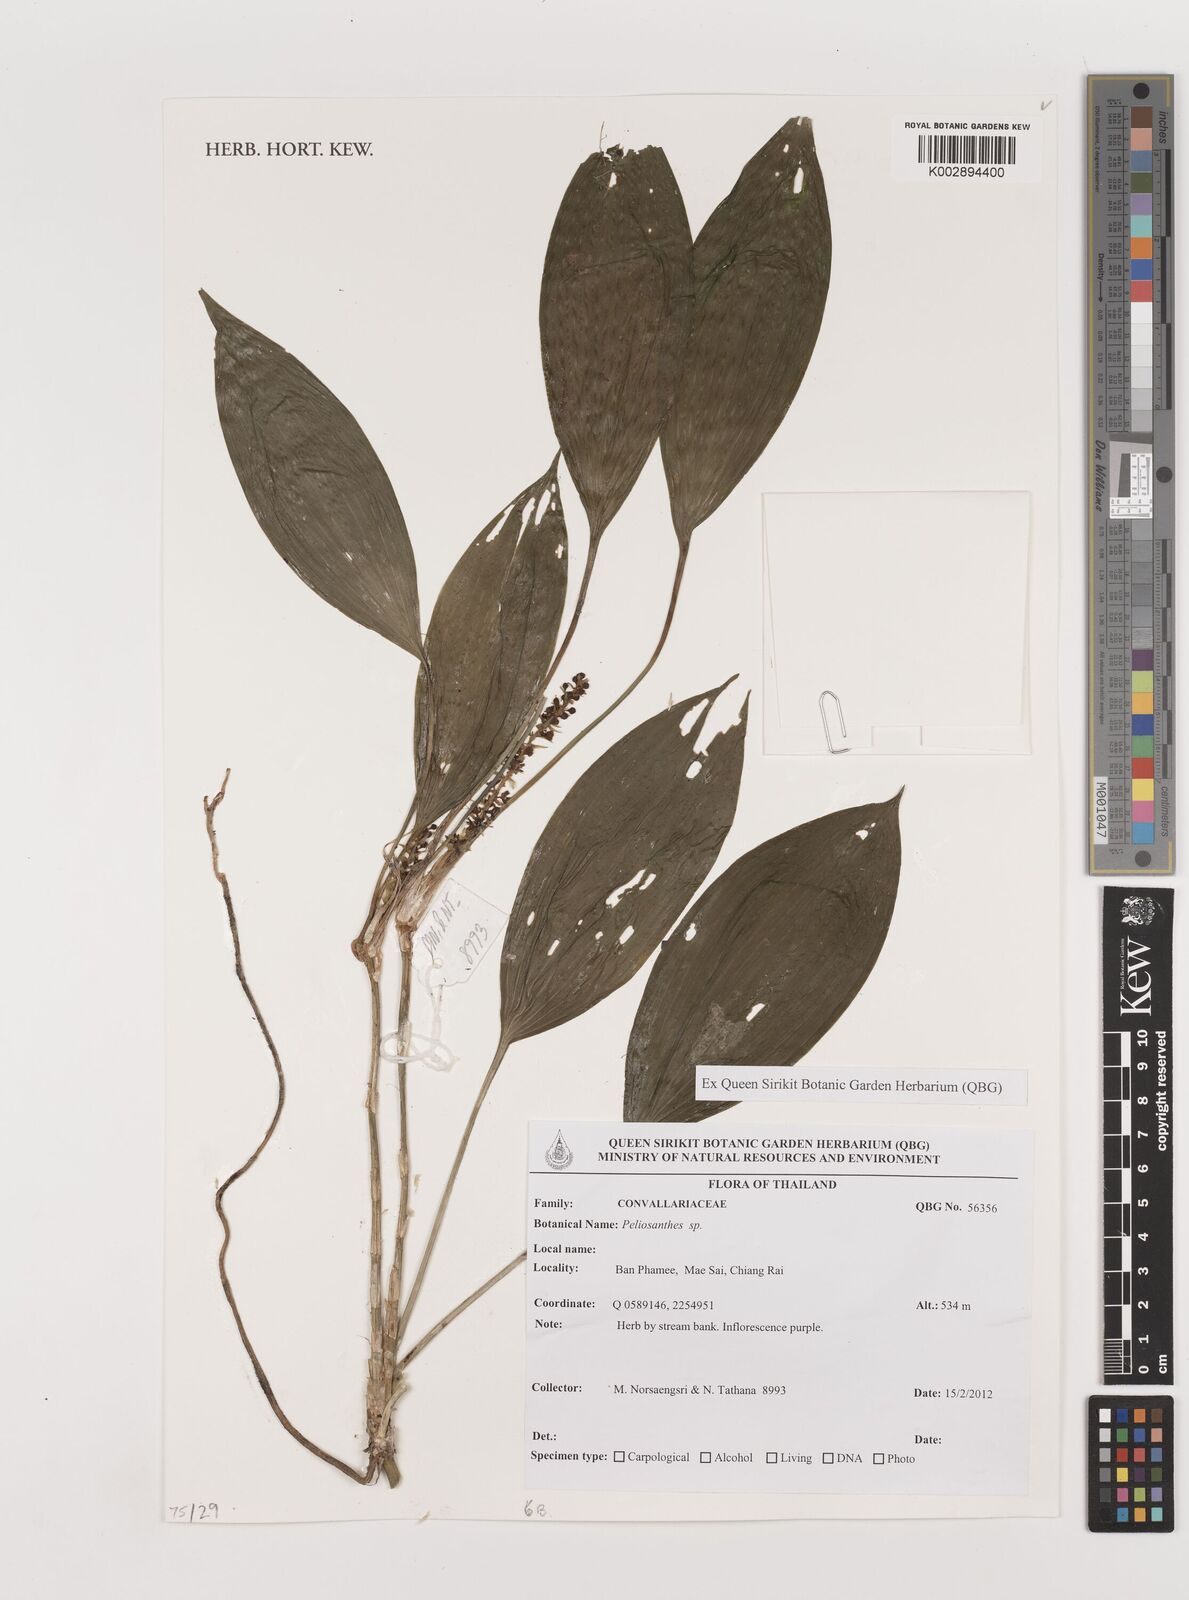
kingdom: Plantae
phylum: Tracheophyta
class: Liliopsida
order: Asparagales
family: Asparagaceae
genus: Peliosanthes
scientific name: Peliosanthes
